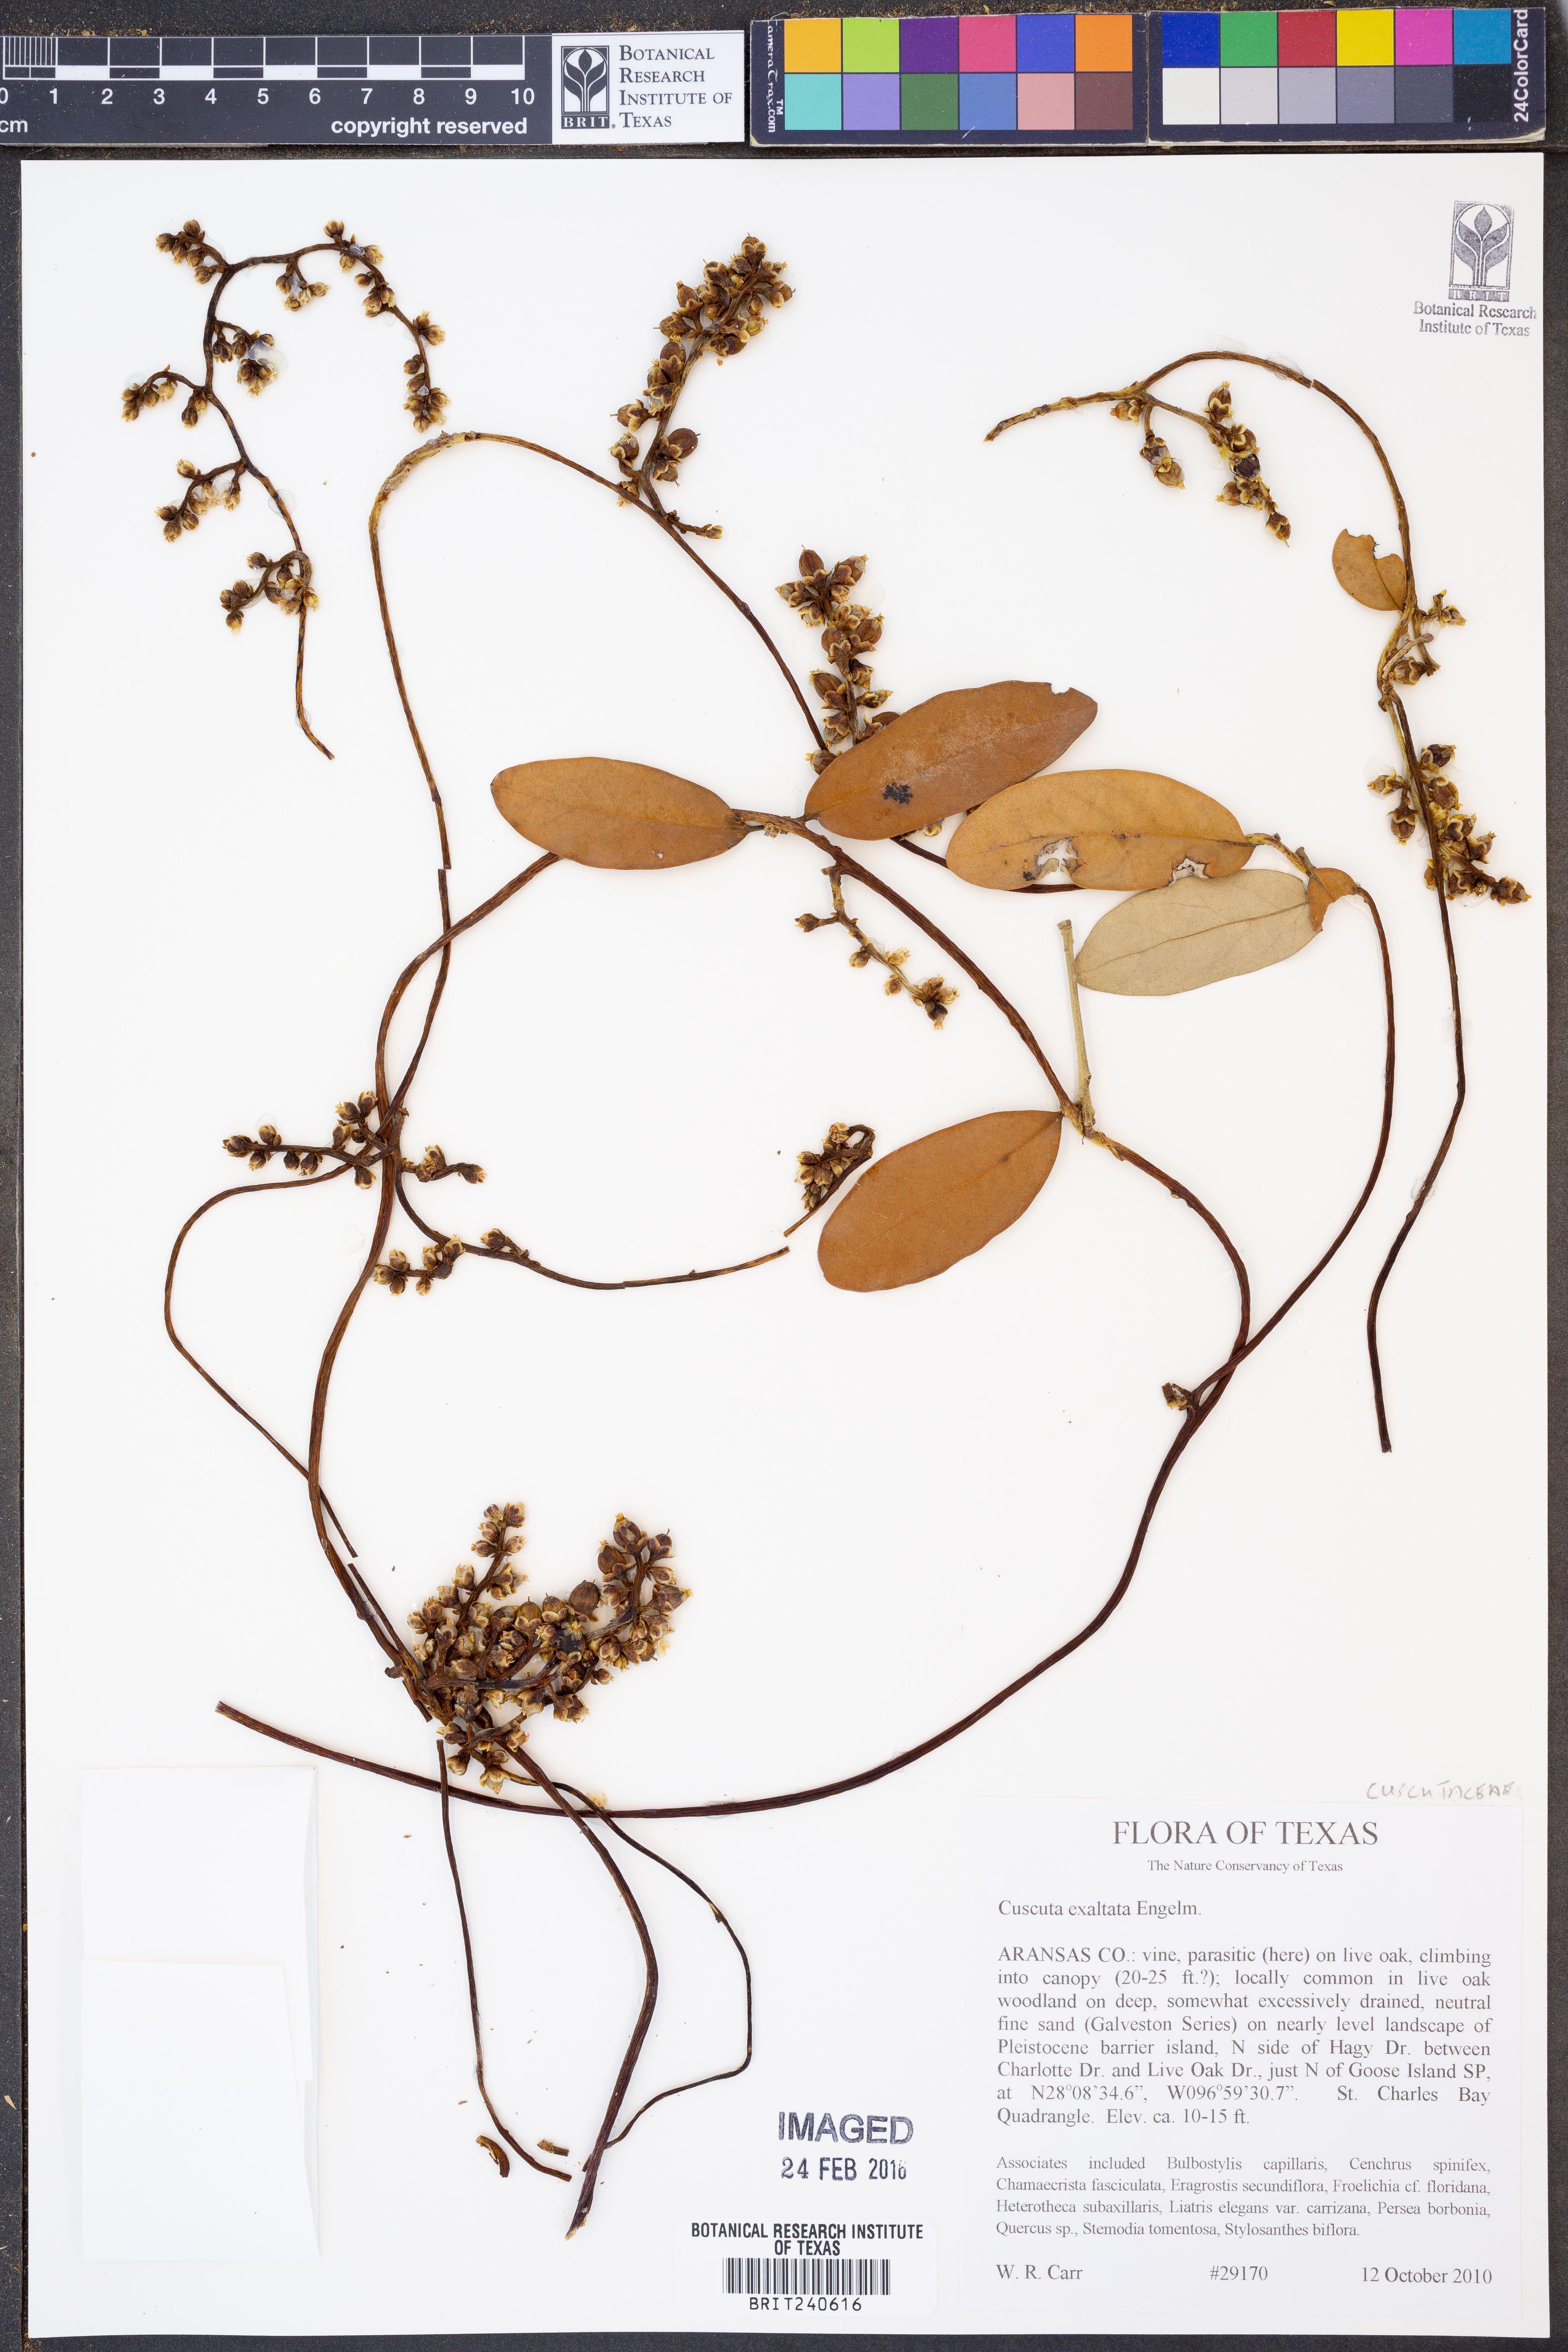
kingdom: Plantae
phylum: Tracheophyta
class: Magnoliopsida
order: Solanales
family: Convolvulaceae
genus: Cuscuta
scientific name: Cuscuta exaltata
